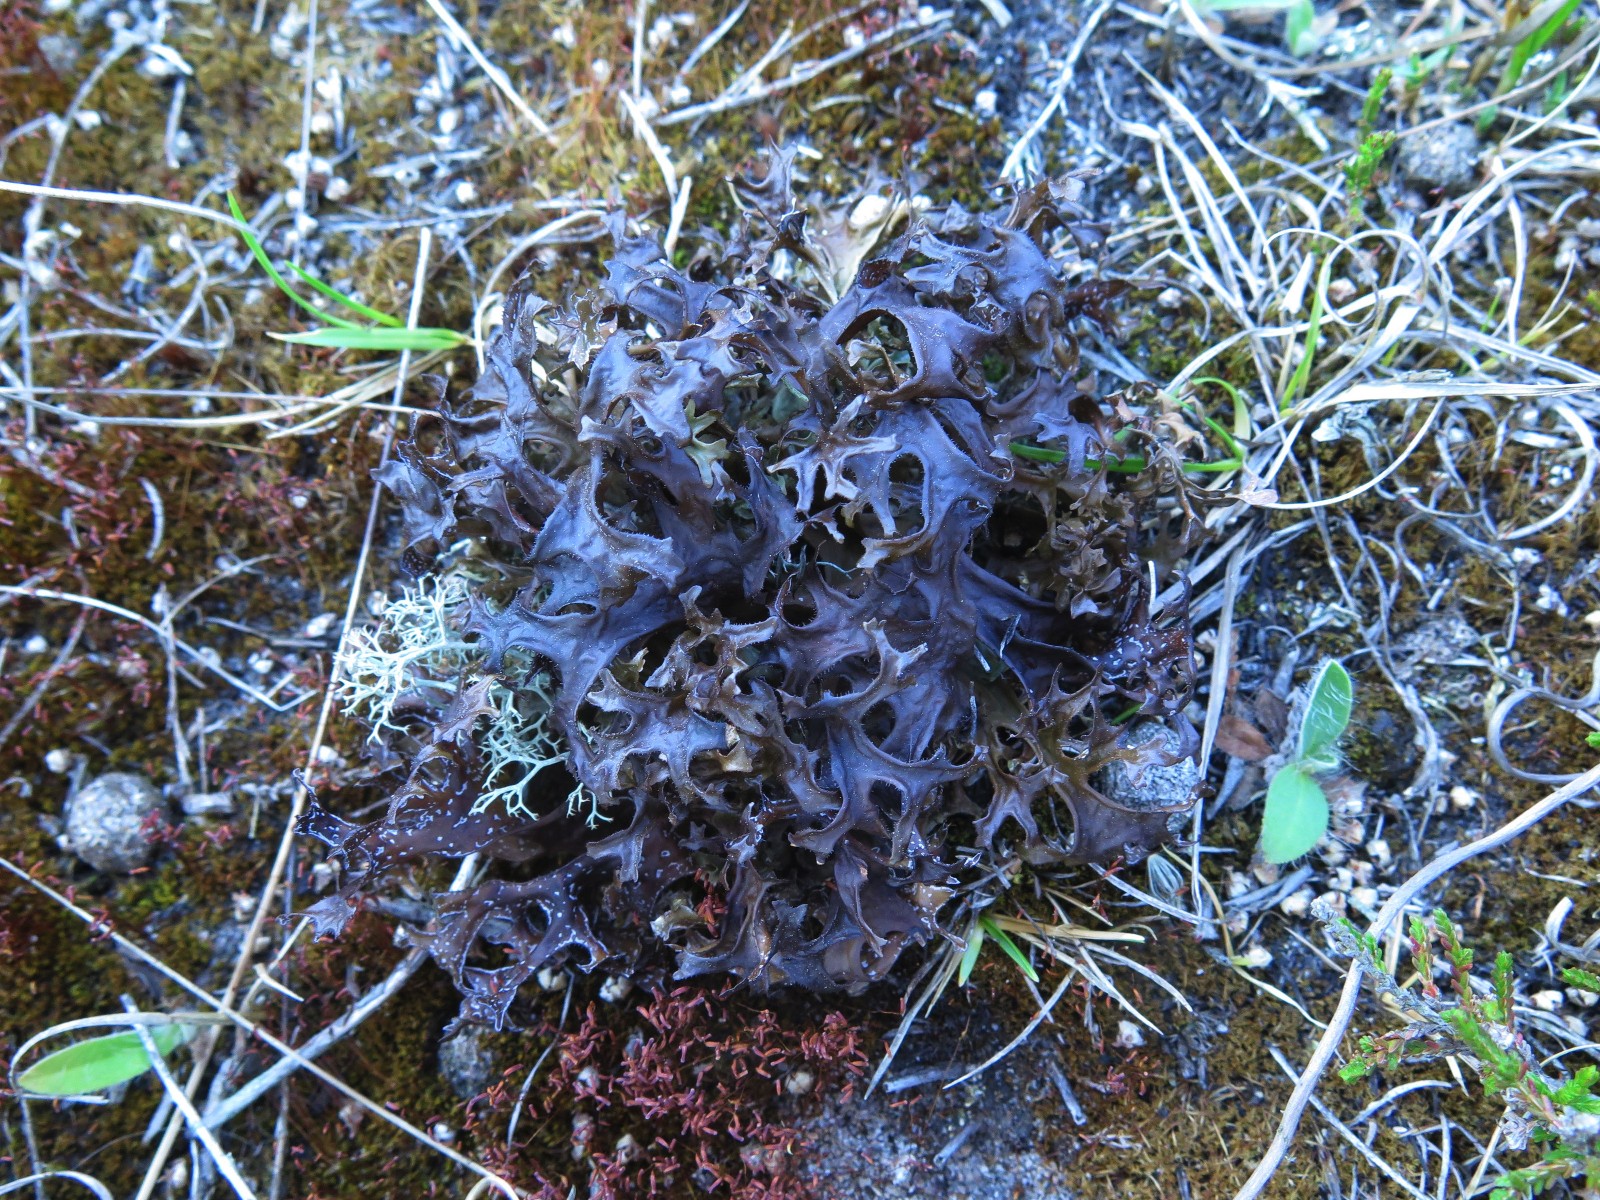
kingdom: Fungi
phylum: Ascomycota
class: Lecanoromycetes
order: Lecanorales
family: Parmeliaceae
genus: Cetraria
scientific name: Cetraria islandica
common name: islandsk kruslav
